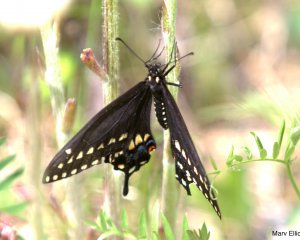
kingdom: Animalia
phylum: Arthropoda
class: Insecta
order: Lepidoptera
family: Papilionidae
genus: Papilio
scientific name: Papilio polyxenes
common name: Black Swallowtail
